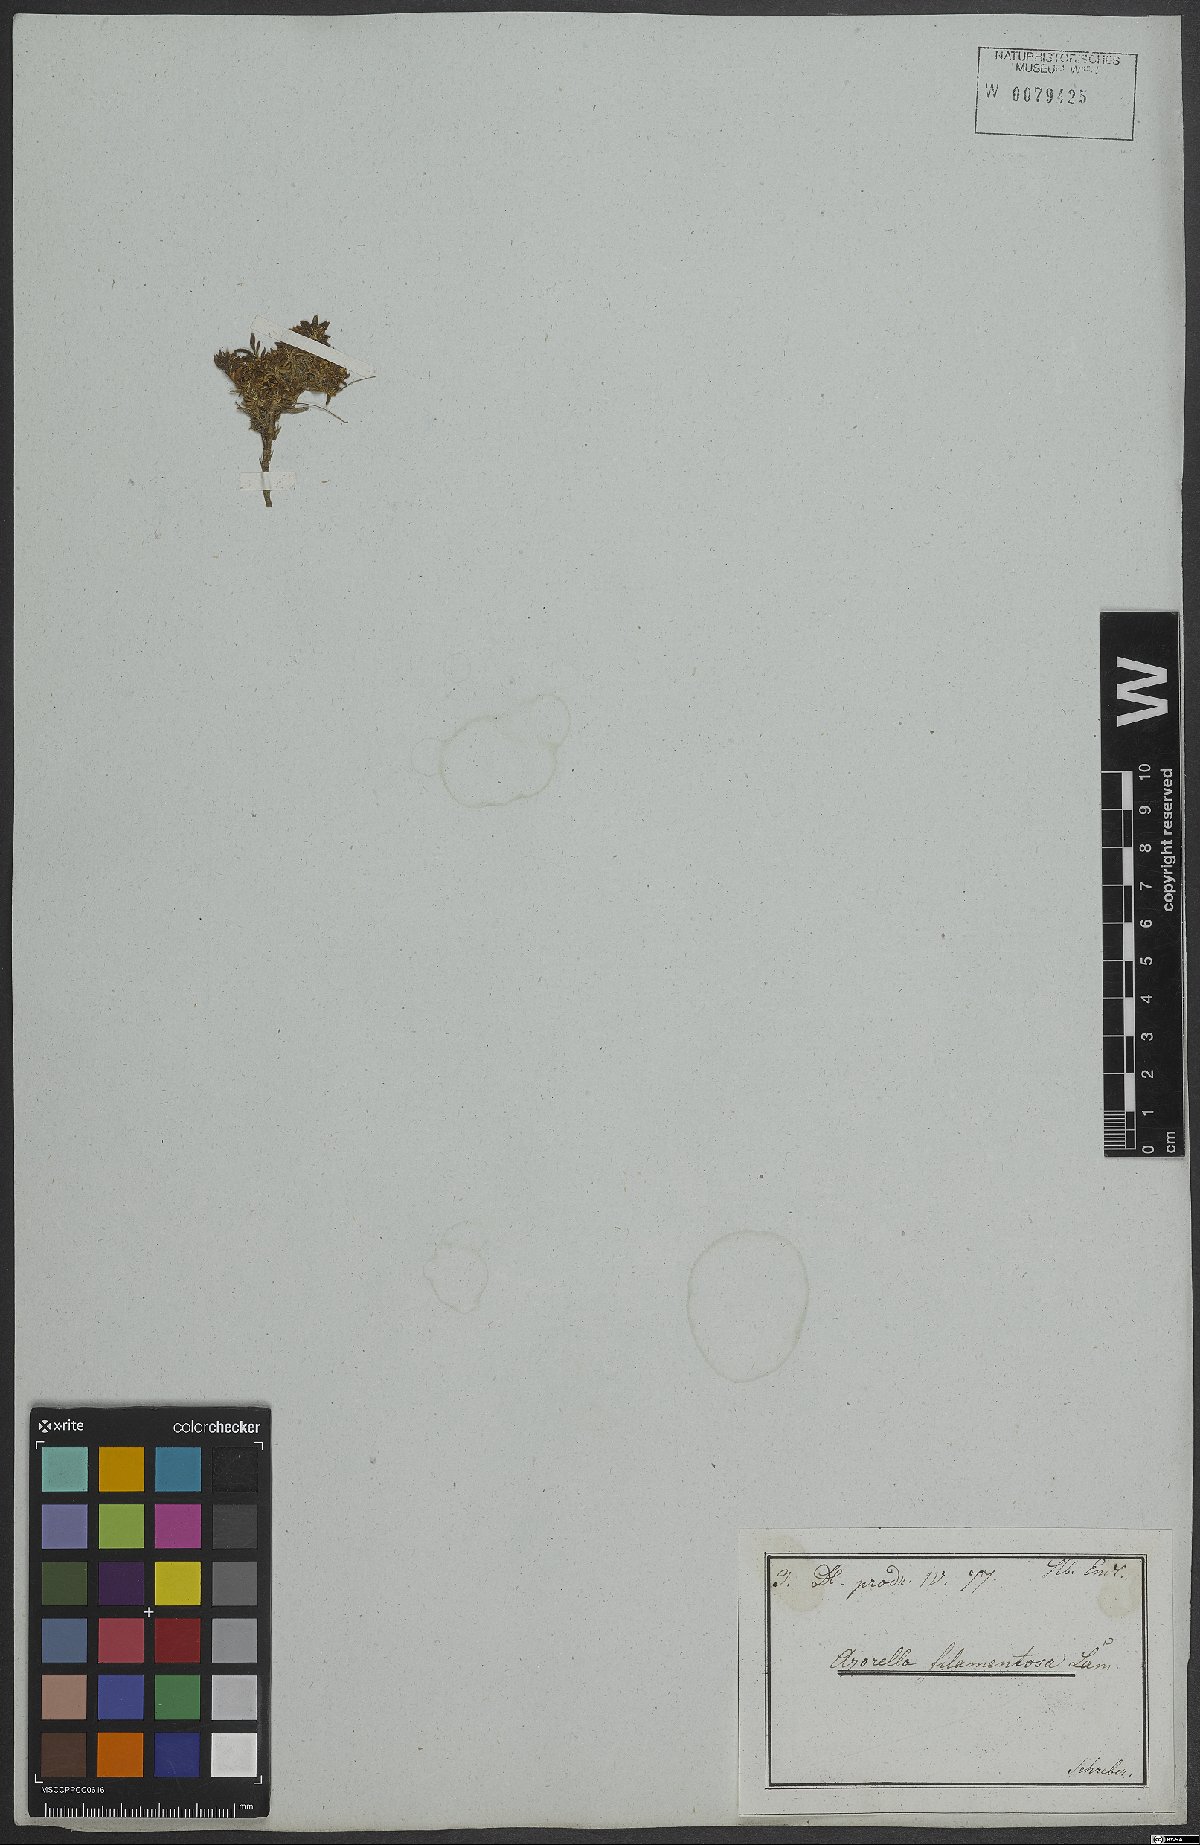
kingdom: Plantae
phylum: Tracheophyta
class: Magnoliopsida
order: Apiales
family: Apiaceae
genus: Azorella
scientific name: Azorella filamentosa
